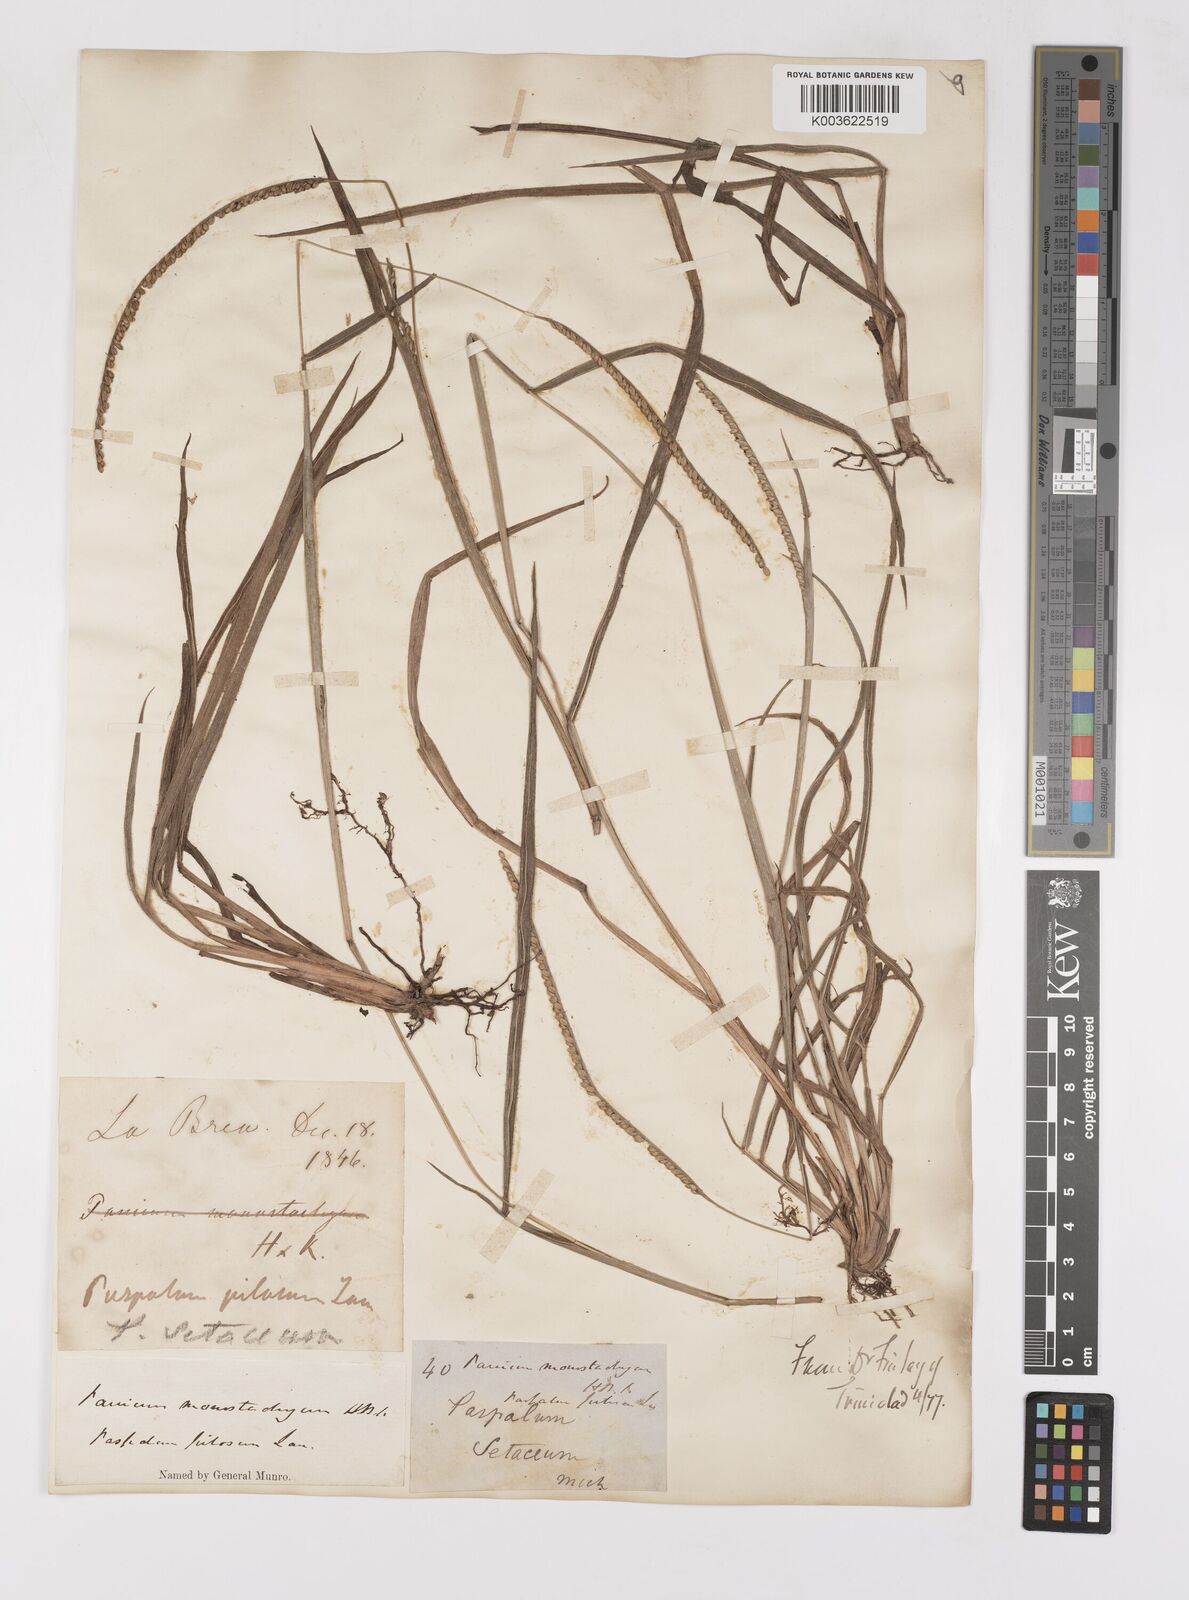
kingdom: Plantae
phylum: Tracheophyta
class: Liliopsida
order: Poales
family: Poaceae
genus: Paspalum
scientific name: Paspalum pilosum
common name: Crowngrass
